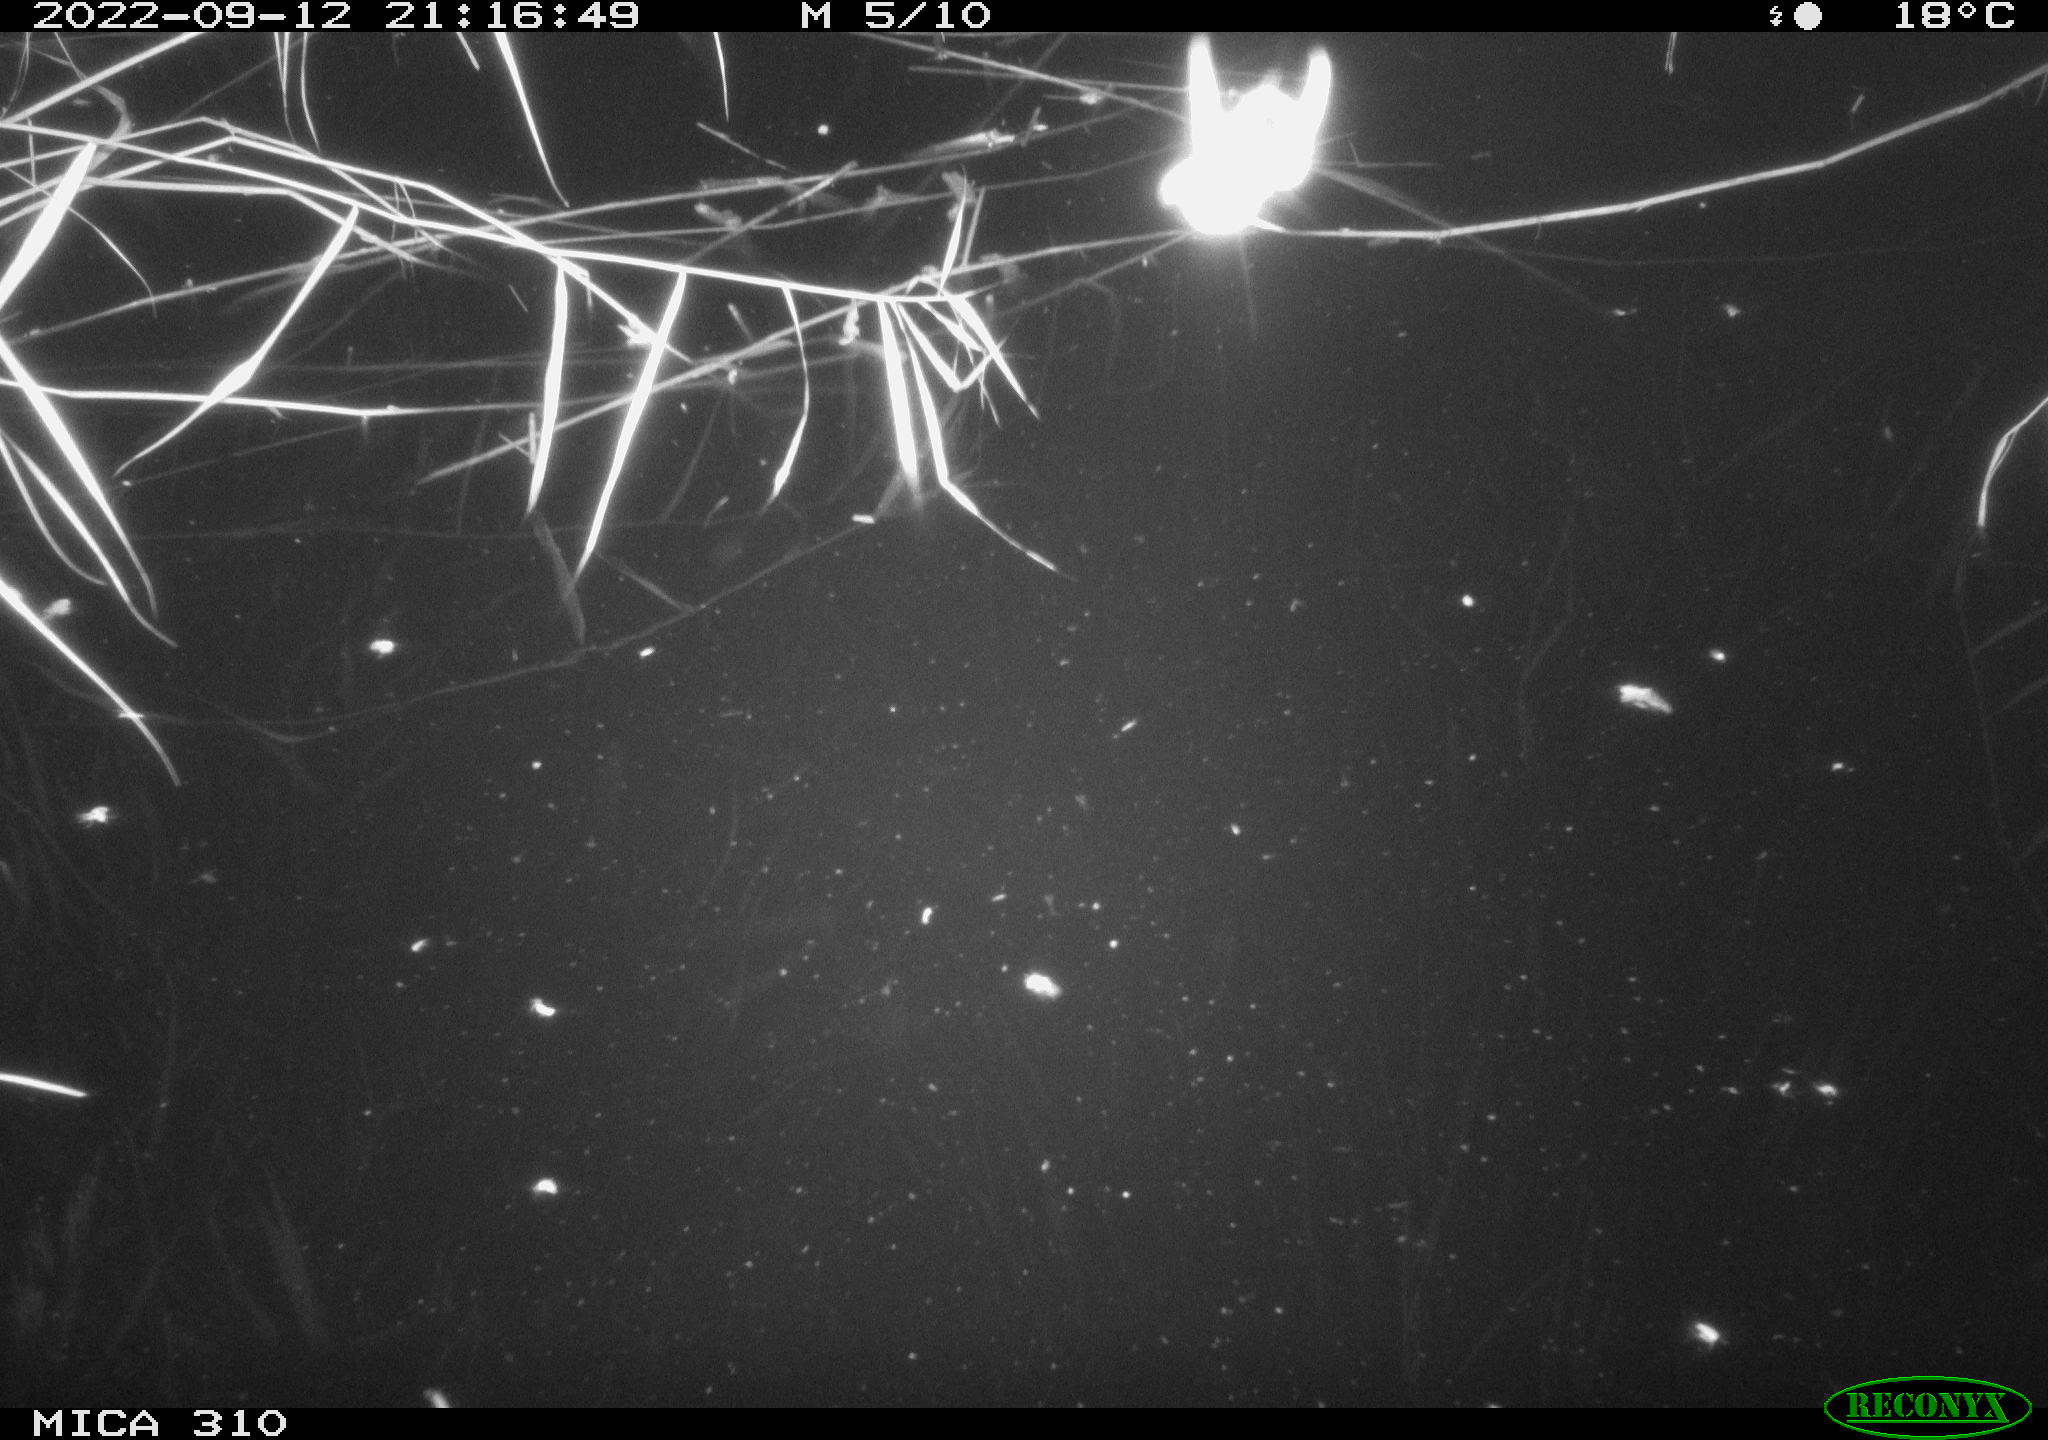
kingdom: Animalia
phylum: Chordata
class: Mammalia
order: Rodentia
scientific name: Rodentia
